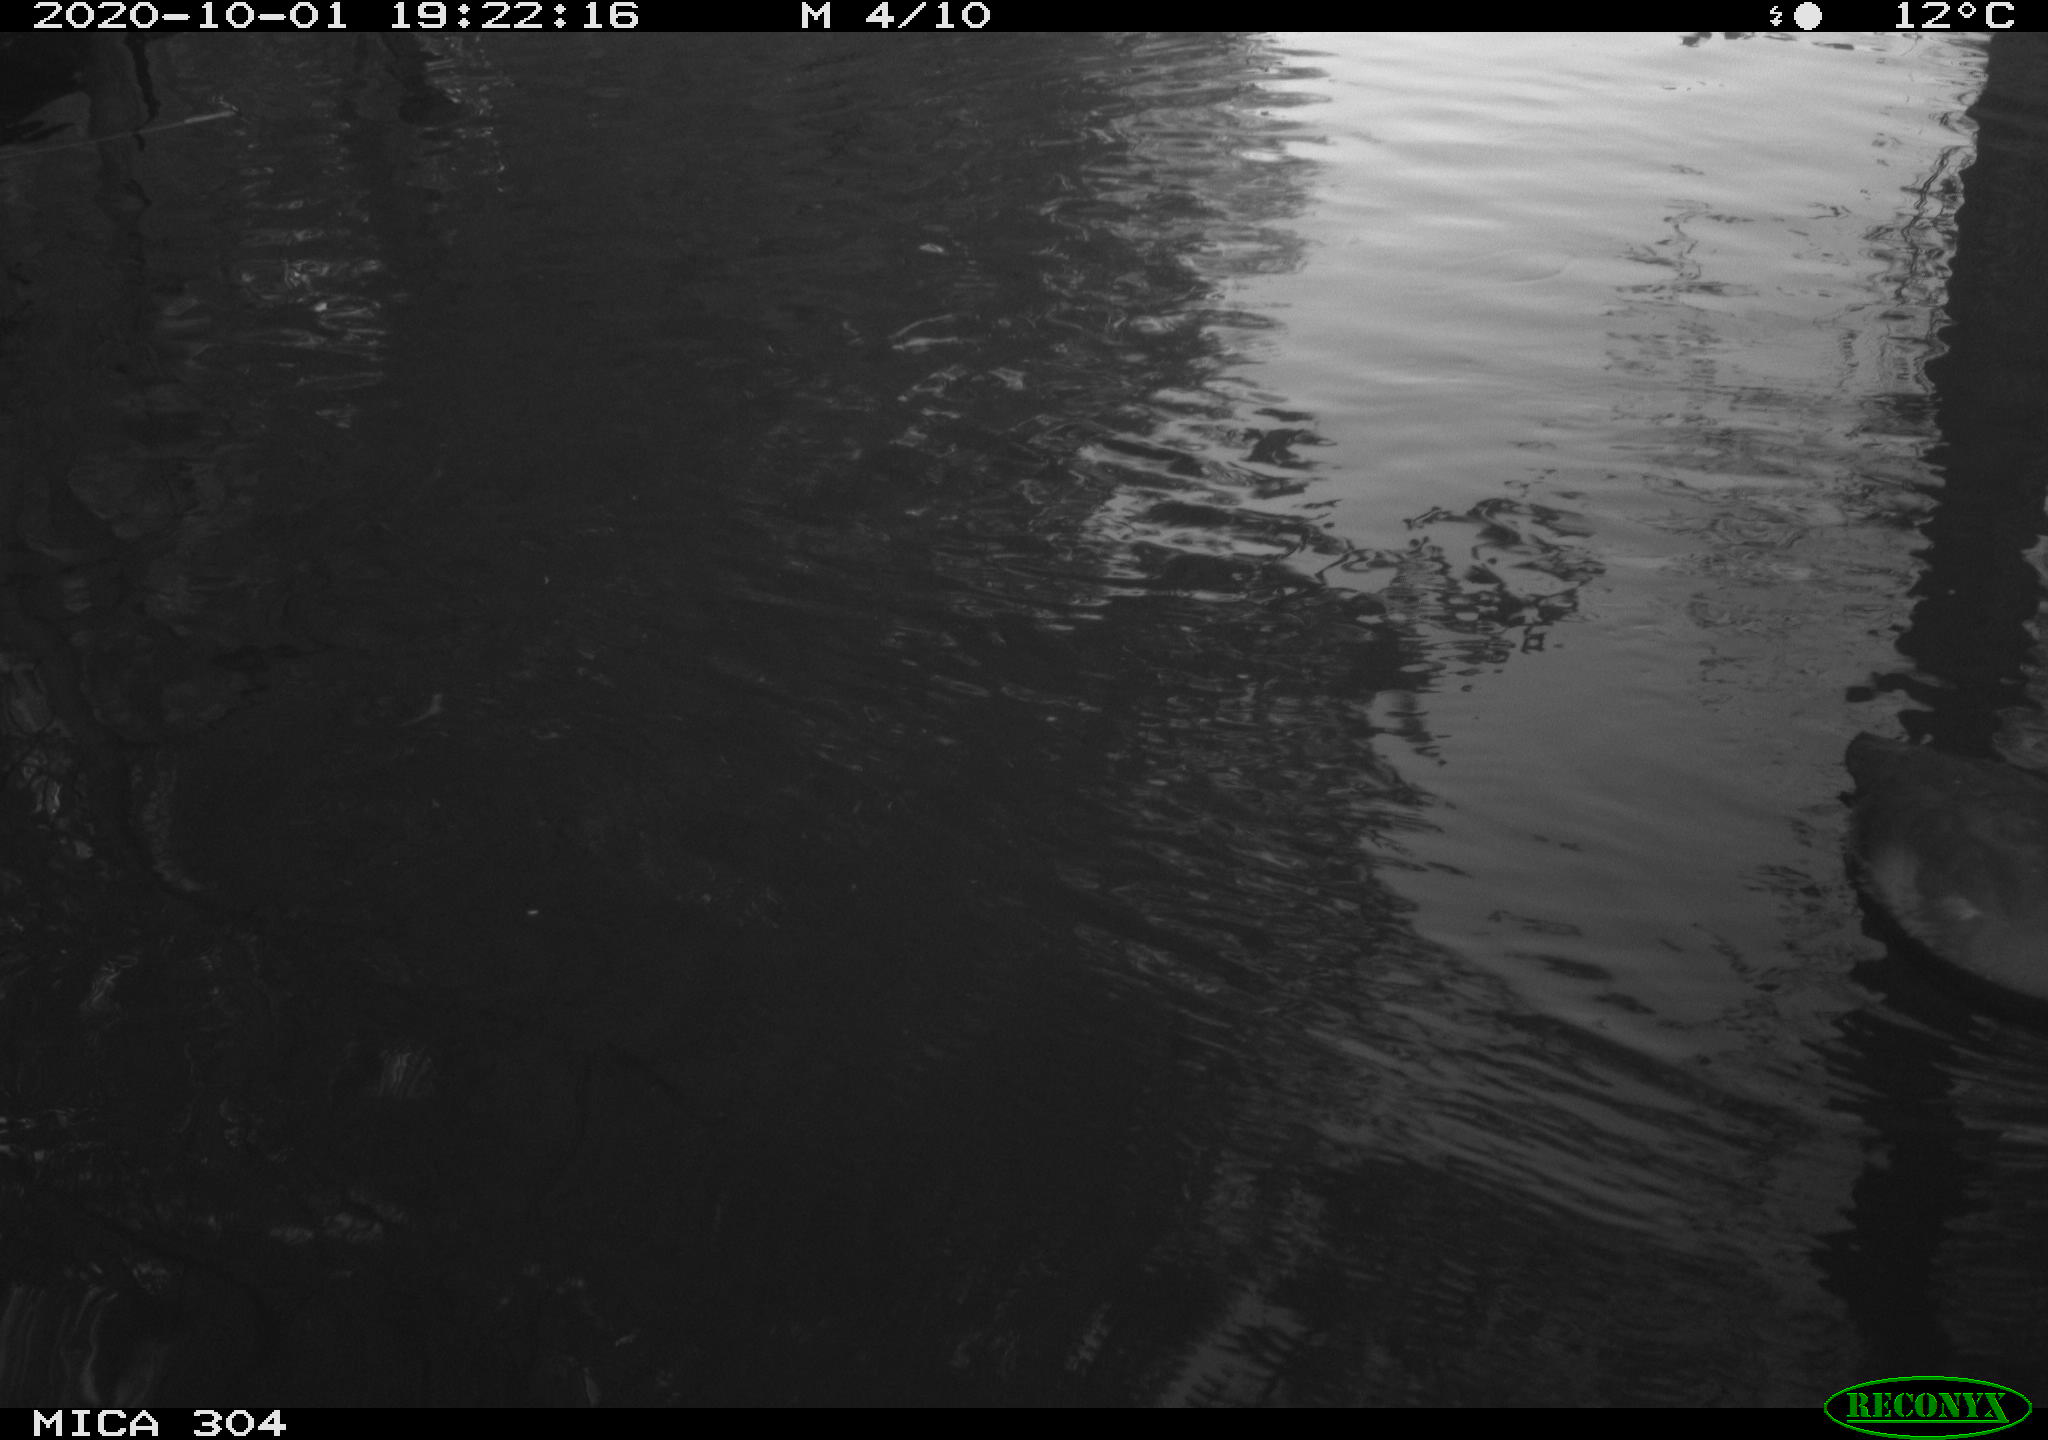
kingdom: Animalia
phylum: Chordata
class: Aves
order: Gruiformes
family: Rallidae
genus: Fulica
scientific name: Fulica atra
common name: Eurasian coot
